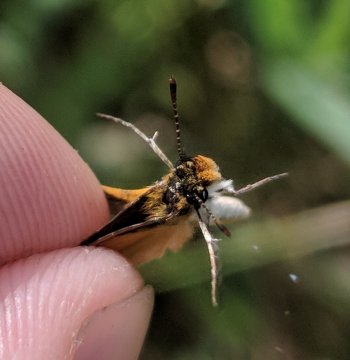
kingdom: Animalia
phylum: Arthropoda
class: Insecta
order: Lepidoptera
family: Hesperiidae
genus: Ancyloxypha
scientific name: Ancyloxypha numitor
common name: Least Skipper
